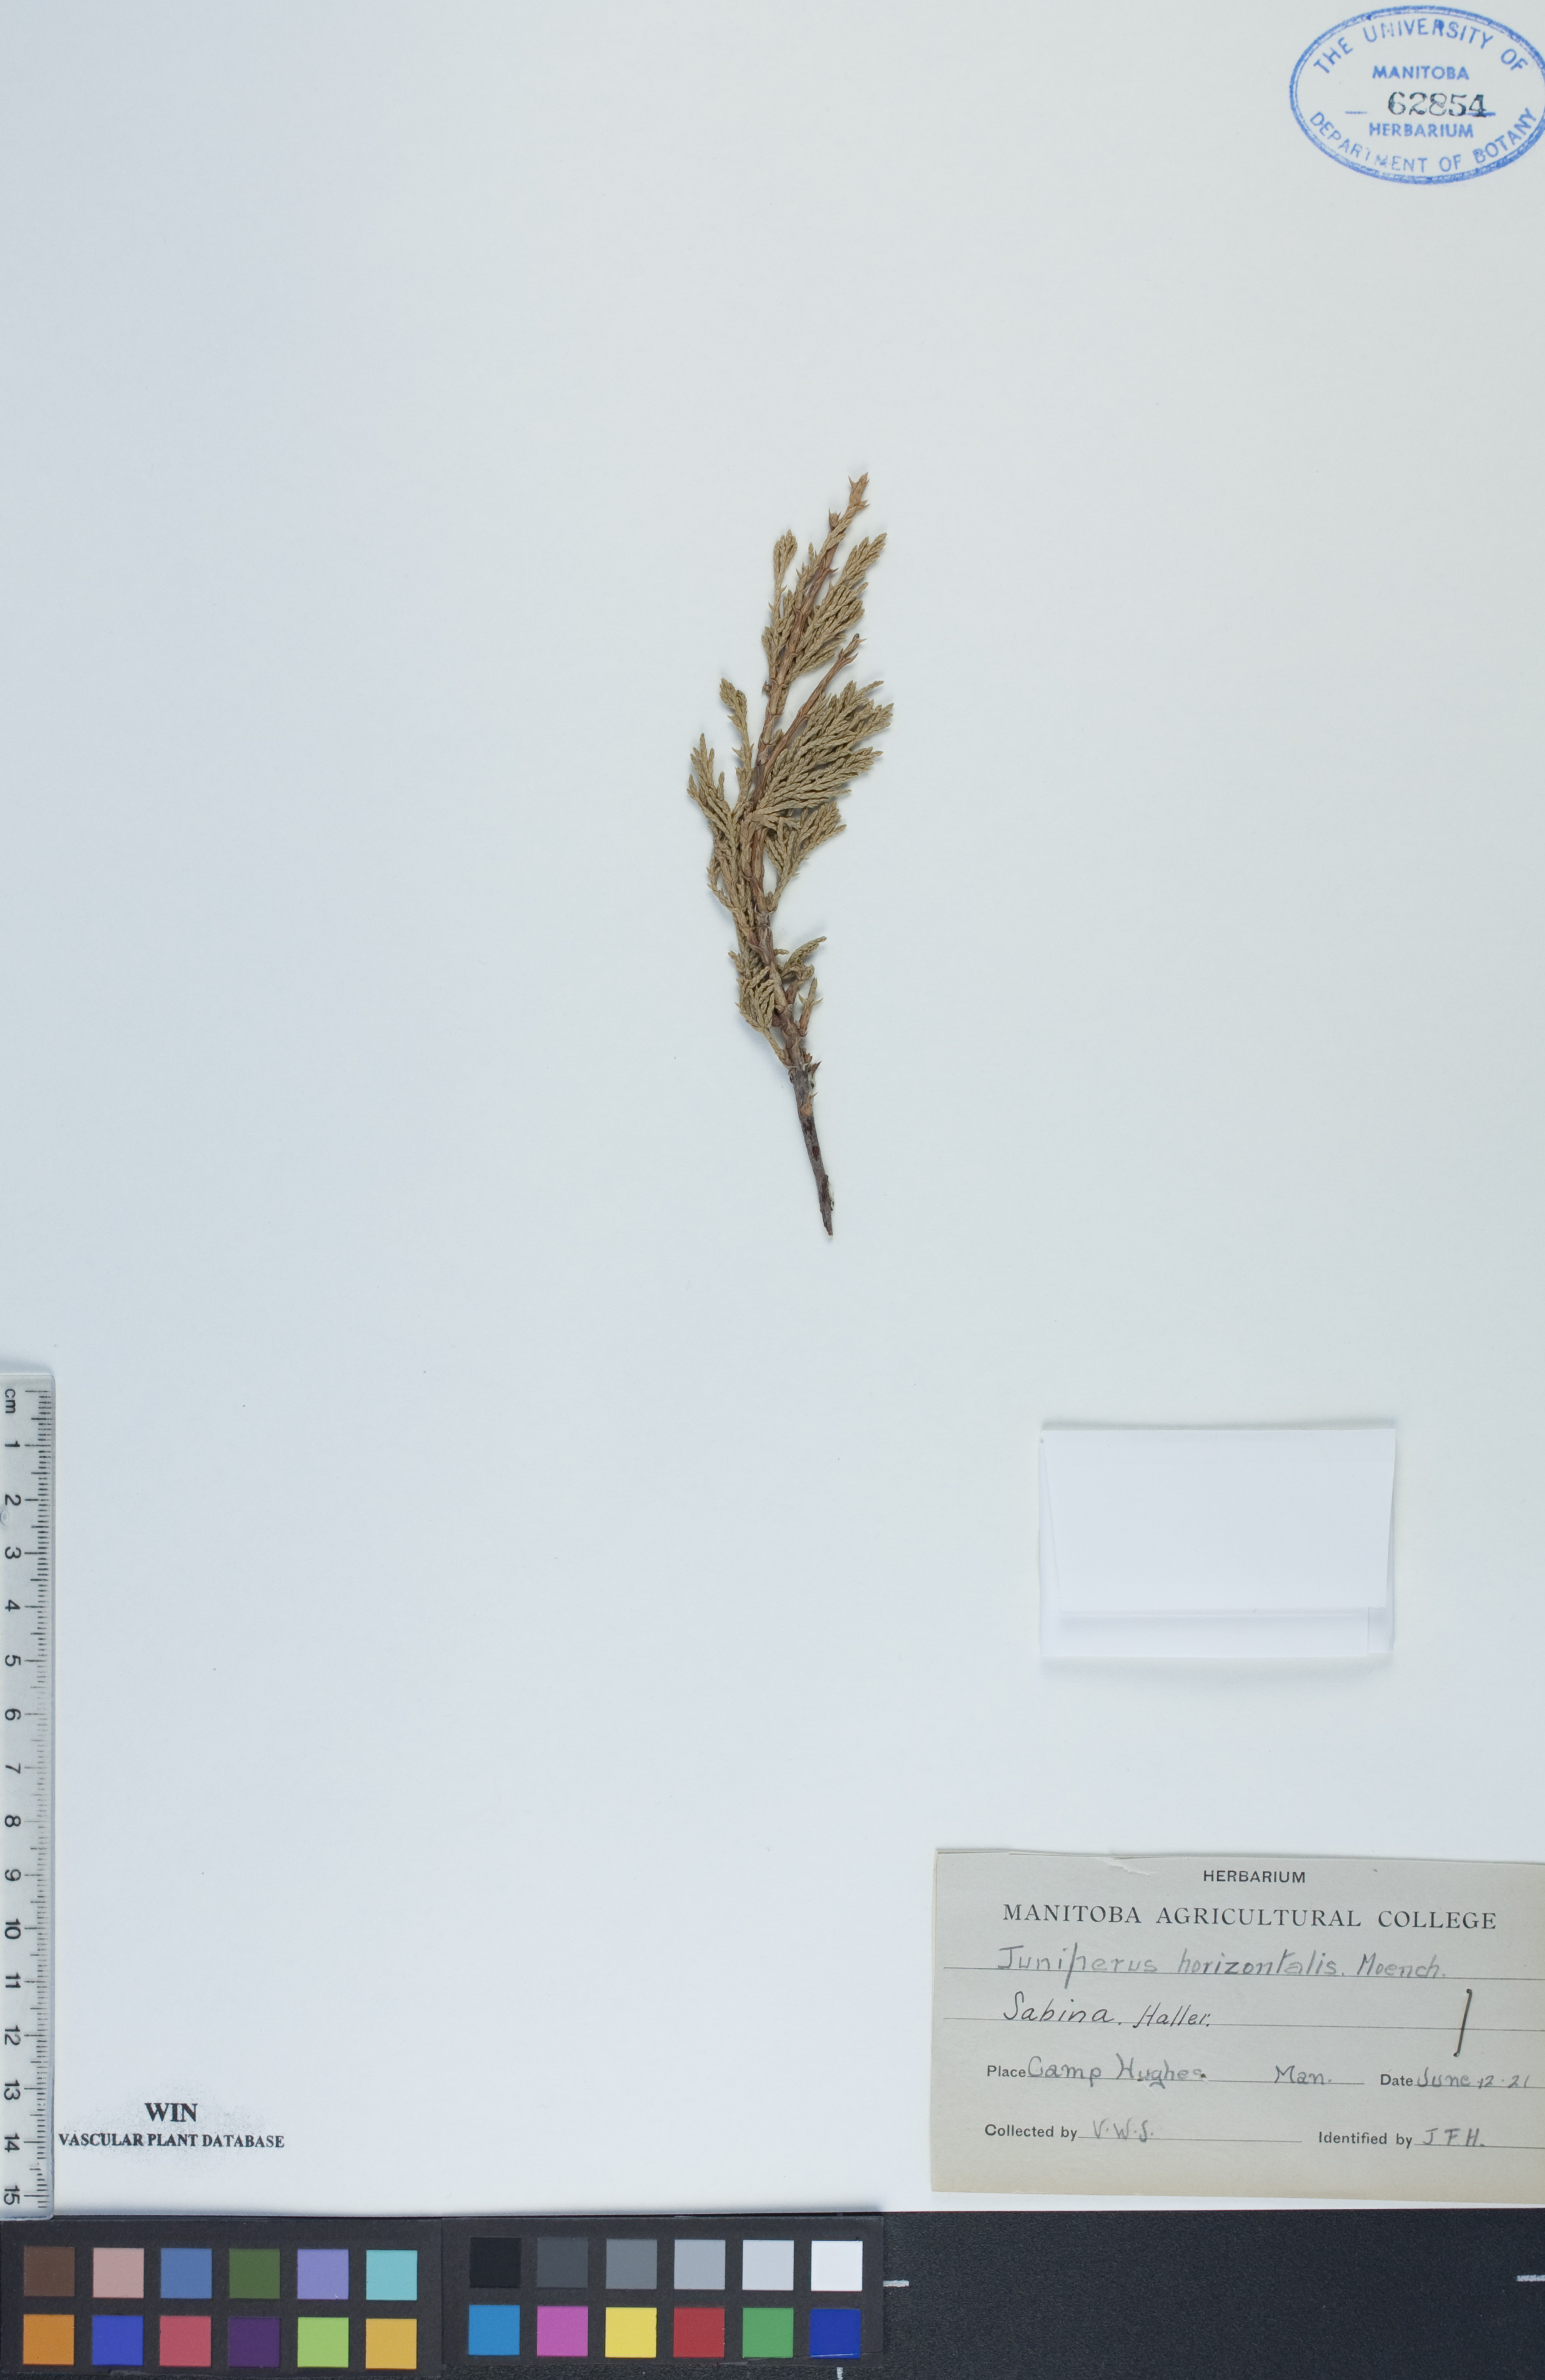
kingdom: Plantae
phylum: Tracheophyta
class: Pinopsida
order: Pinales
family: Cupressaceae
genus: Juniperus
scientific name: Juniperus horizontalis
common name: Creeping juniper
